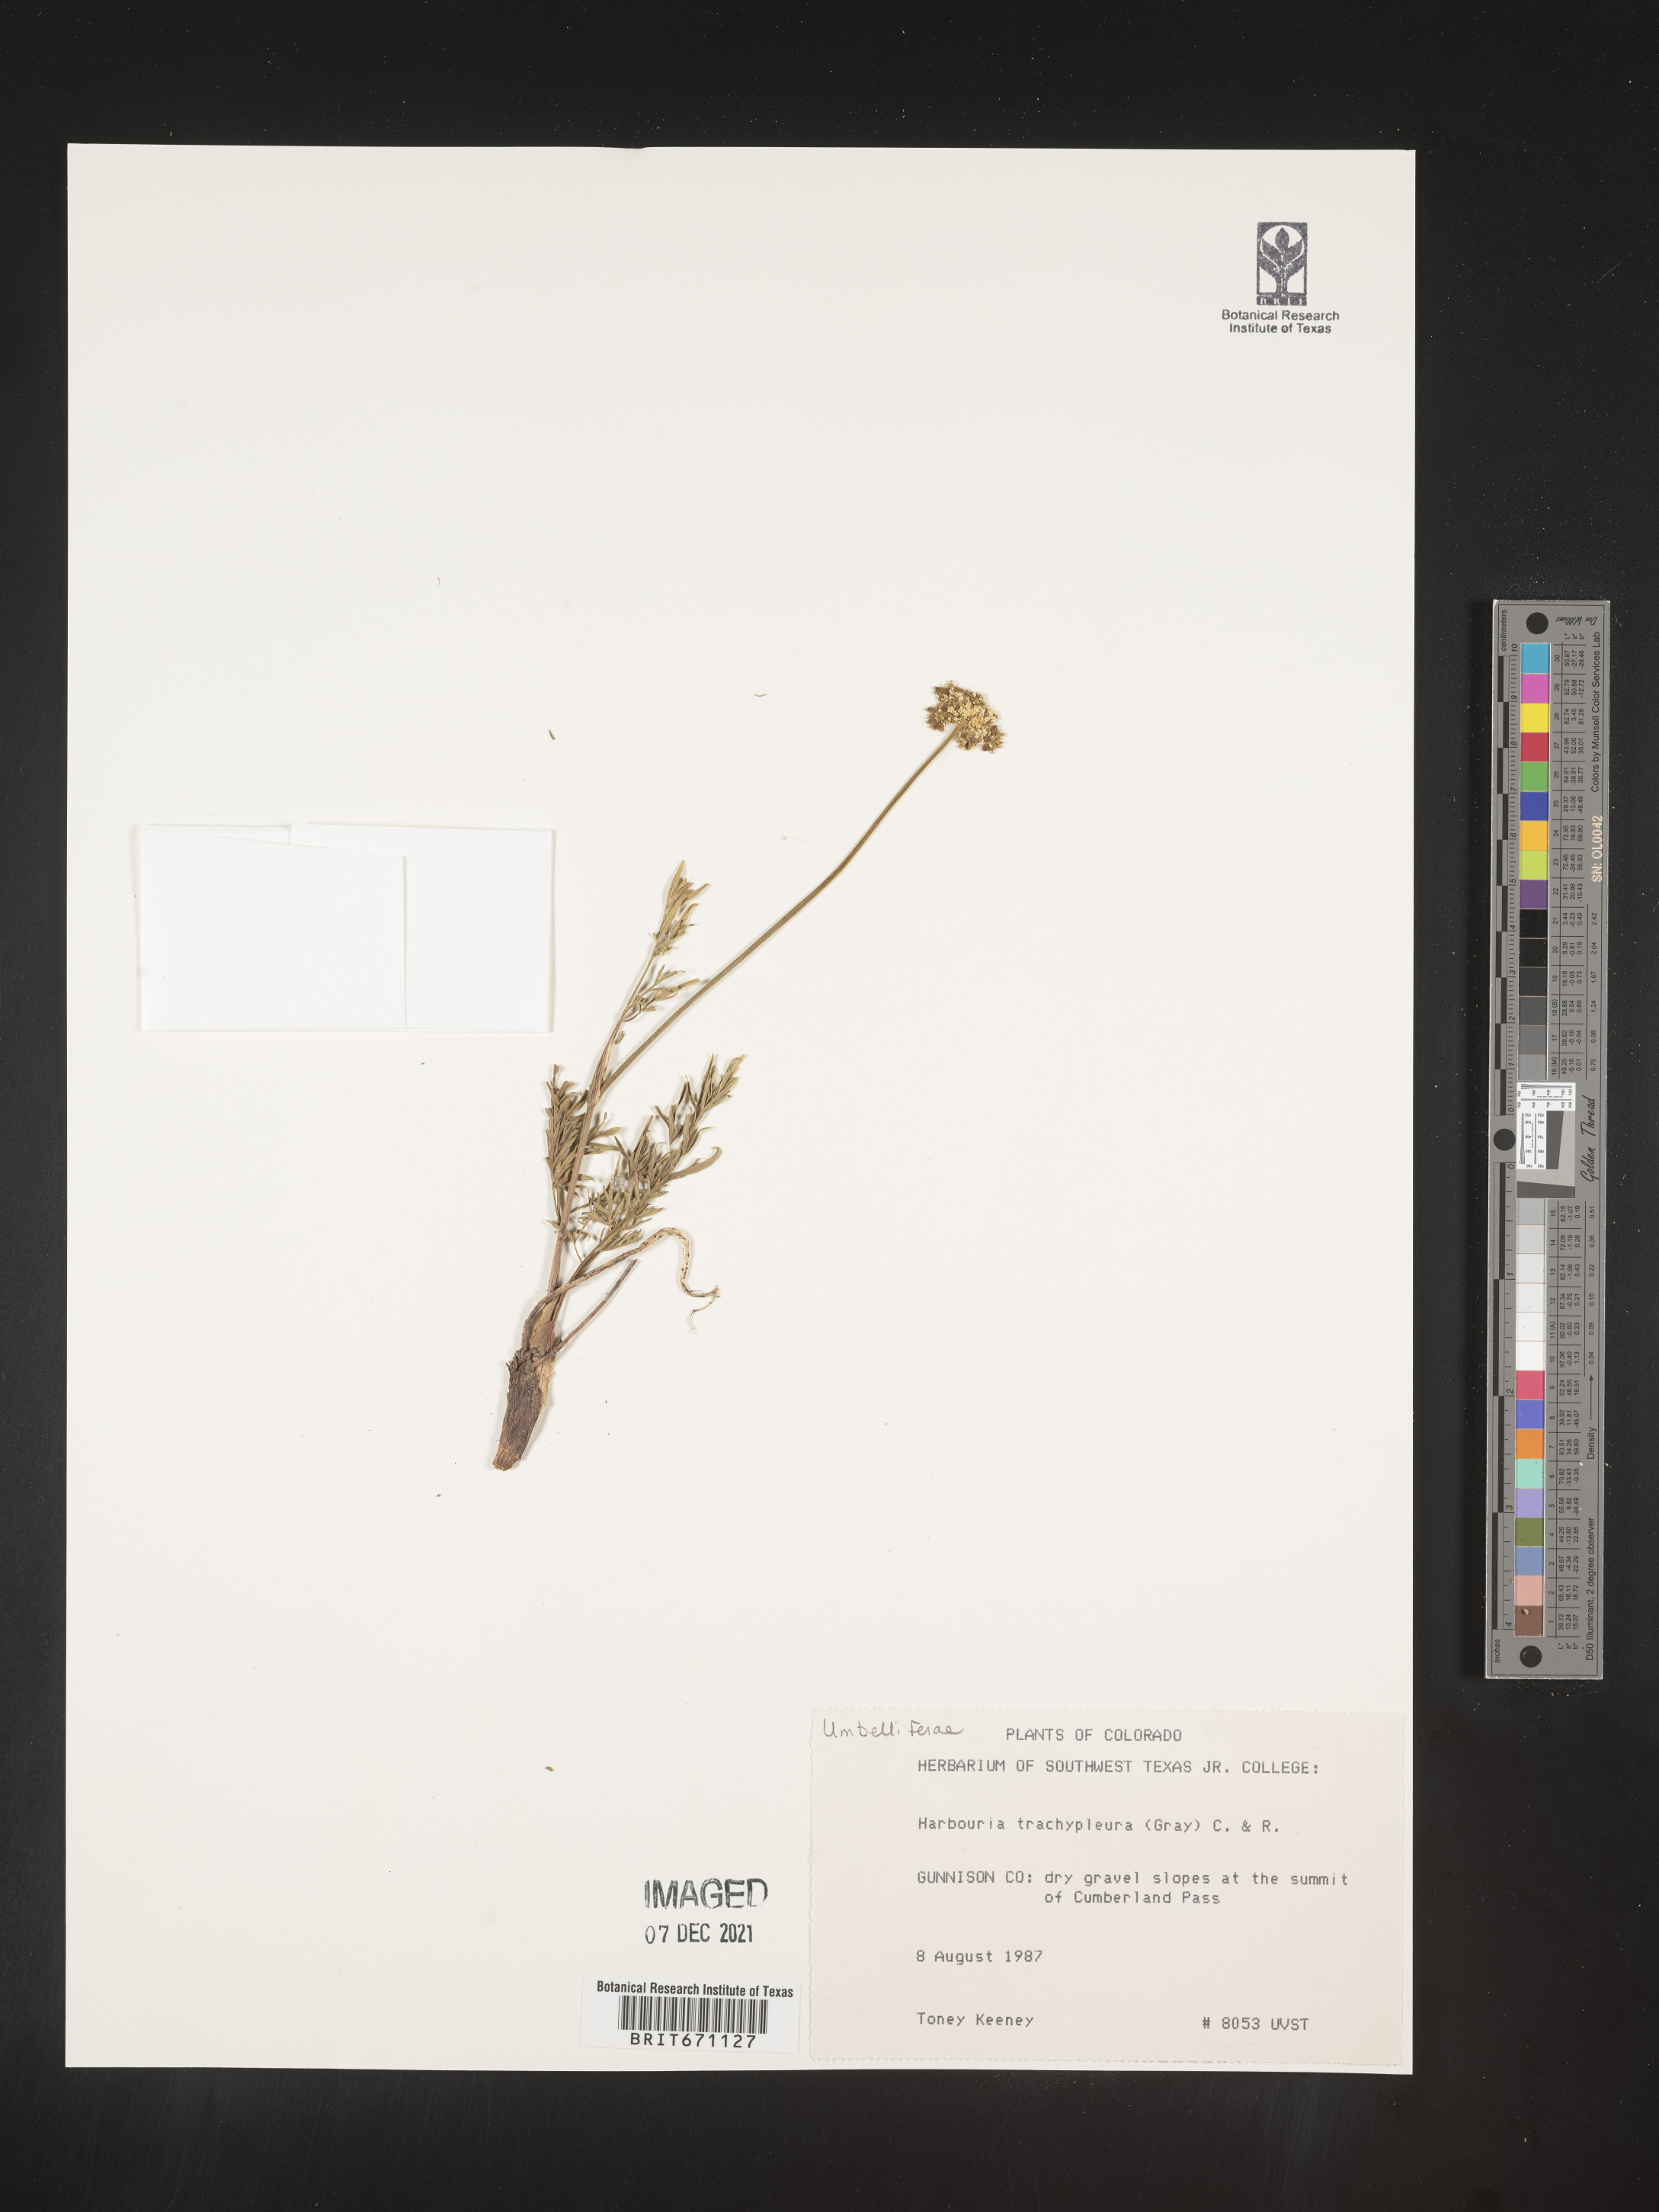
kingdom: Plantae
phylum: Tracheophyta
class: Magnoliopsida
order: Apiales
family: Apiaceae
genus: Harbouria
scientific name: Harbouria trachypleura
